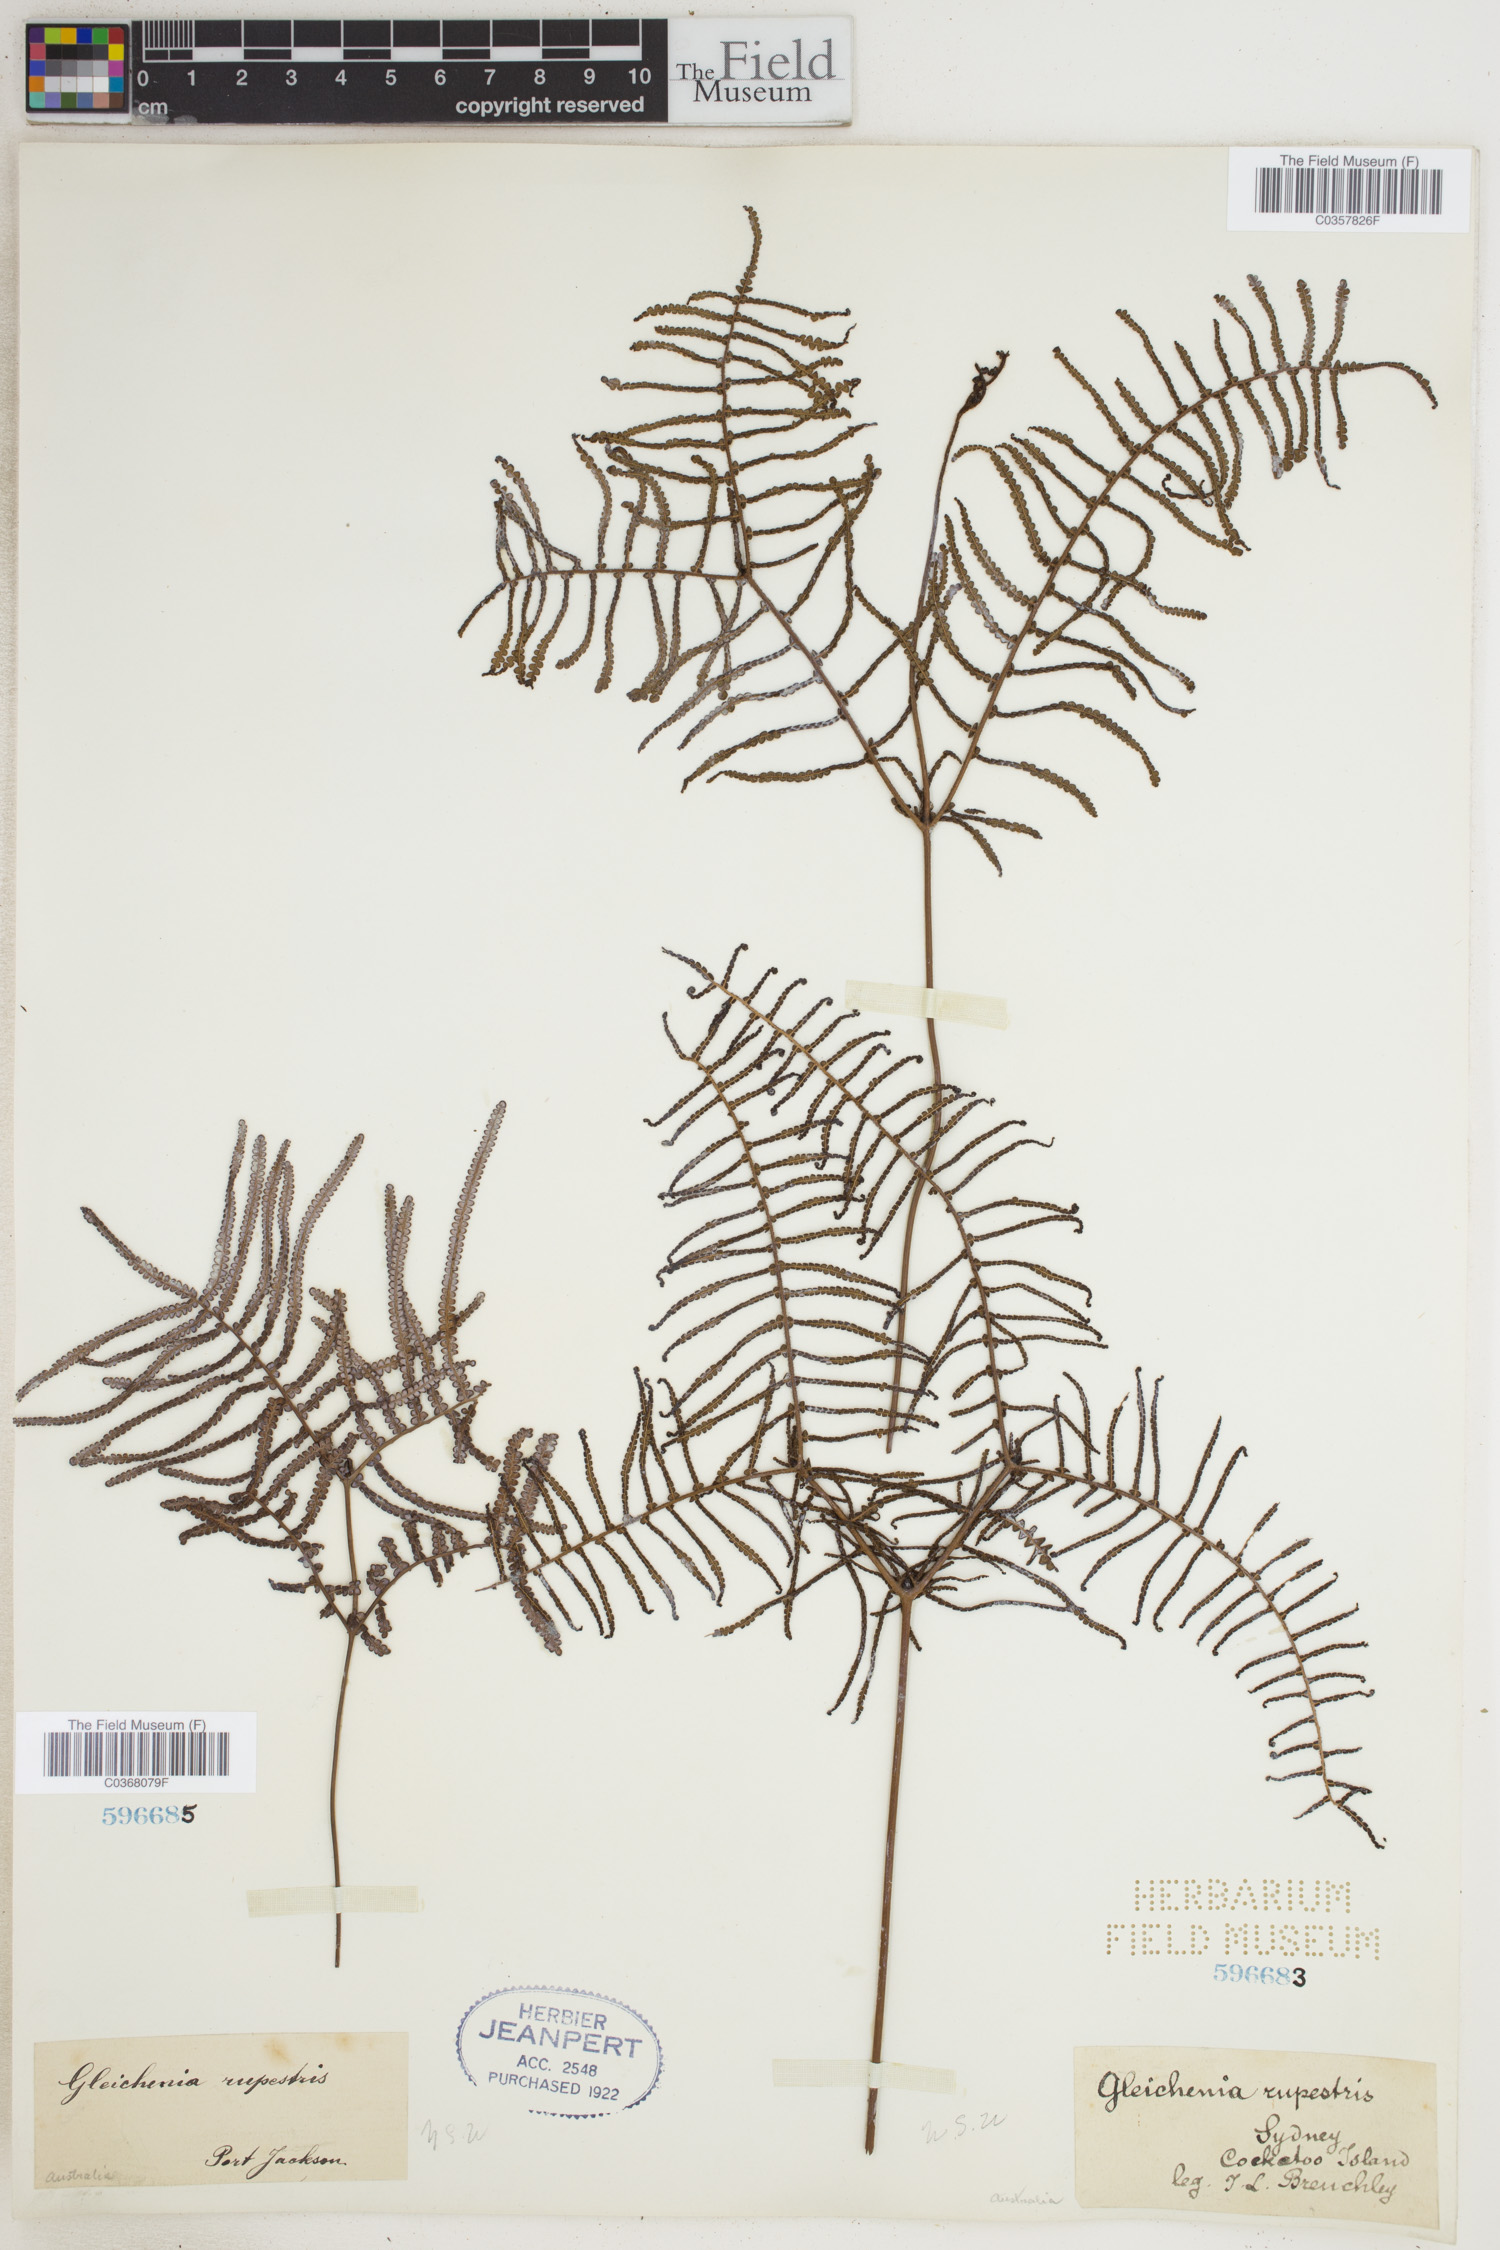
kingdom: Plantae
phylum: Tracheophyta
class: Polypodiopsida
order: Gleicheniales
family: Gleicheniaceae
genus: Gleichenia
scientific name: Gleichenia rupestris
